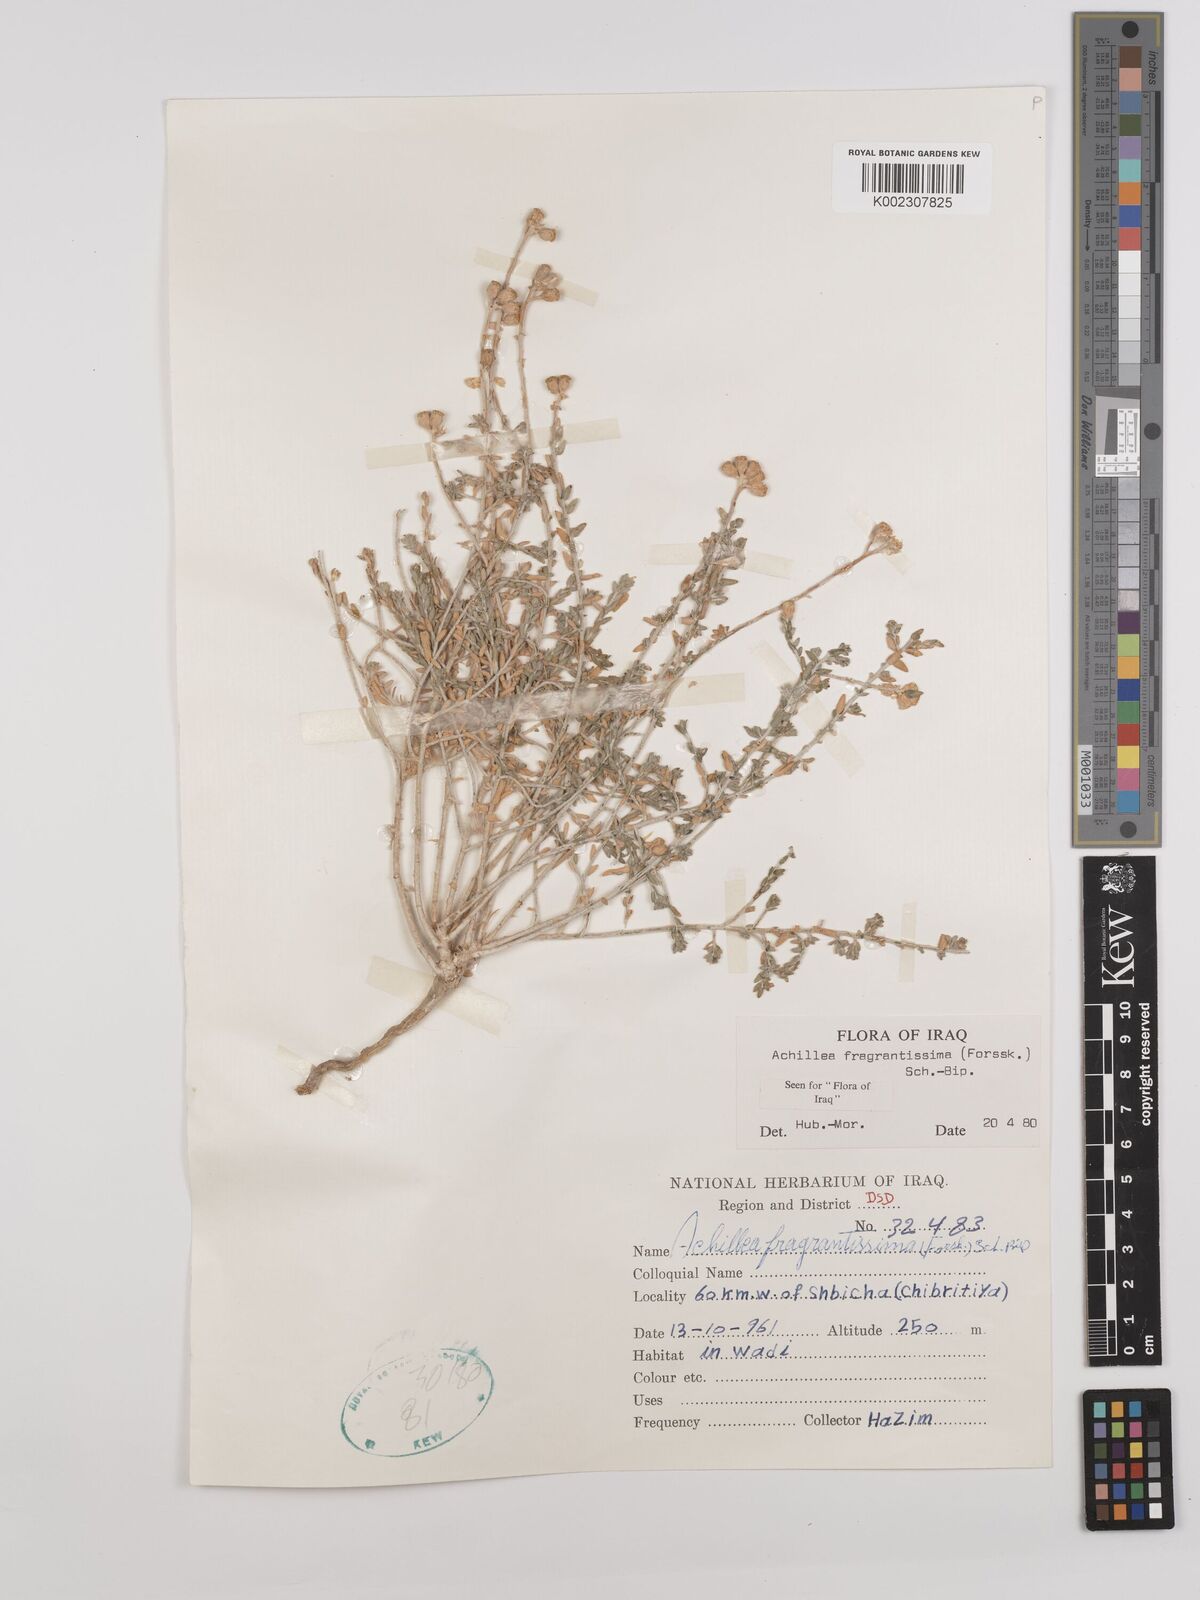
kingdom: Plantae
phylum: Tracheophyta
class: Magnoliopsida
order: Asterales
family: Asteraceae
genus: Achillea
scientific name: Achillea fragrantissima
